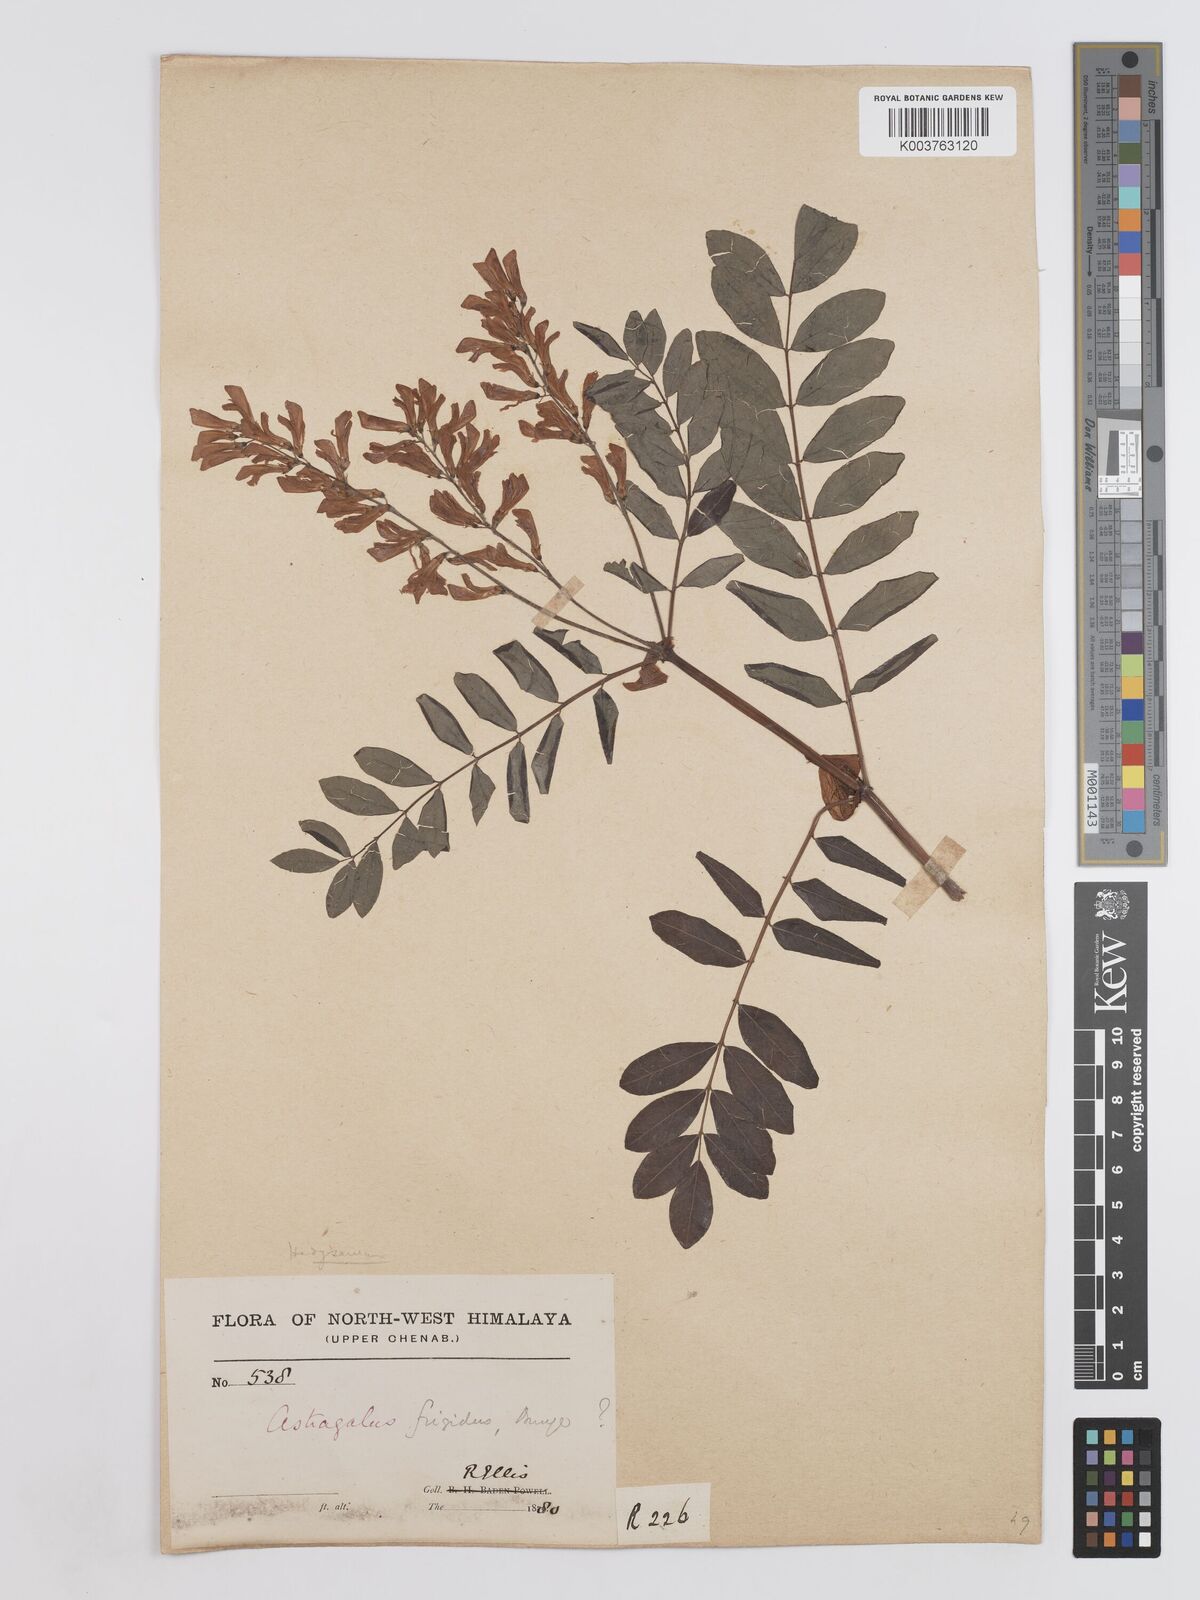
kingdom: Plantae
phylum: Tracheophyta
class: Magnoliopsida
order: Fabales
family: Fabaceae
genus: Hedysarum
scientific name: Hedysarum microcalyx
